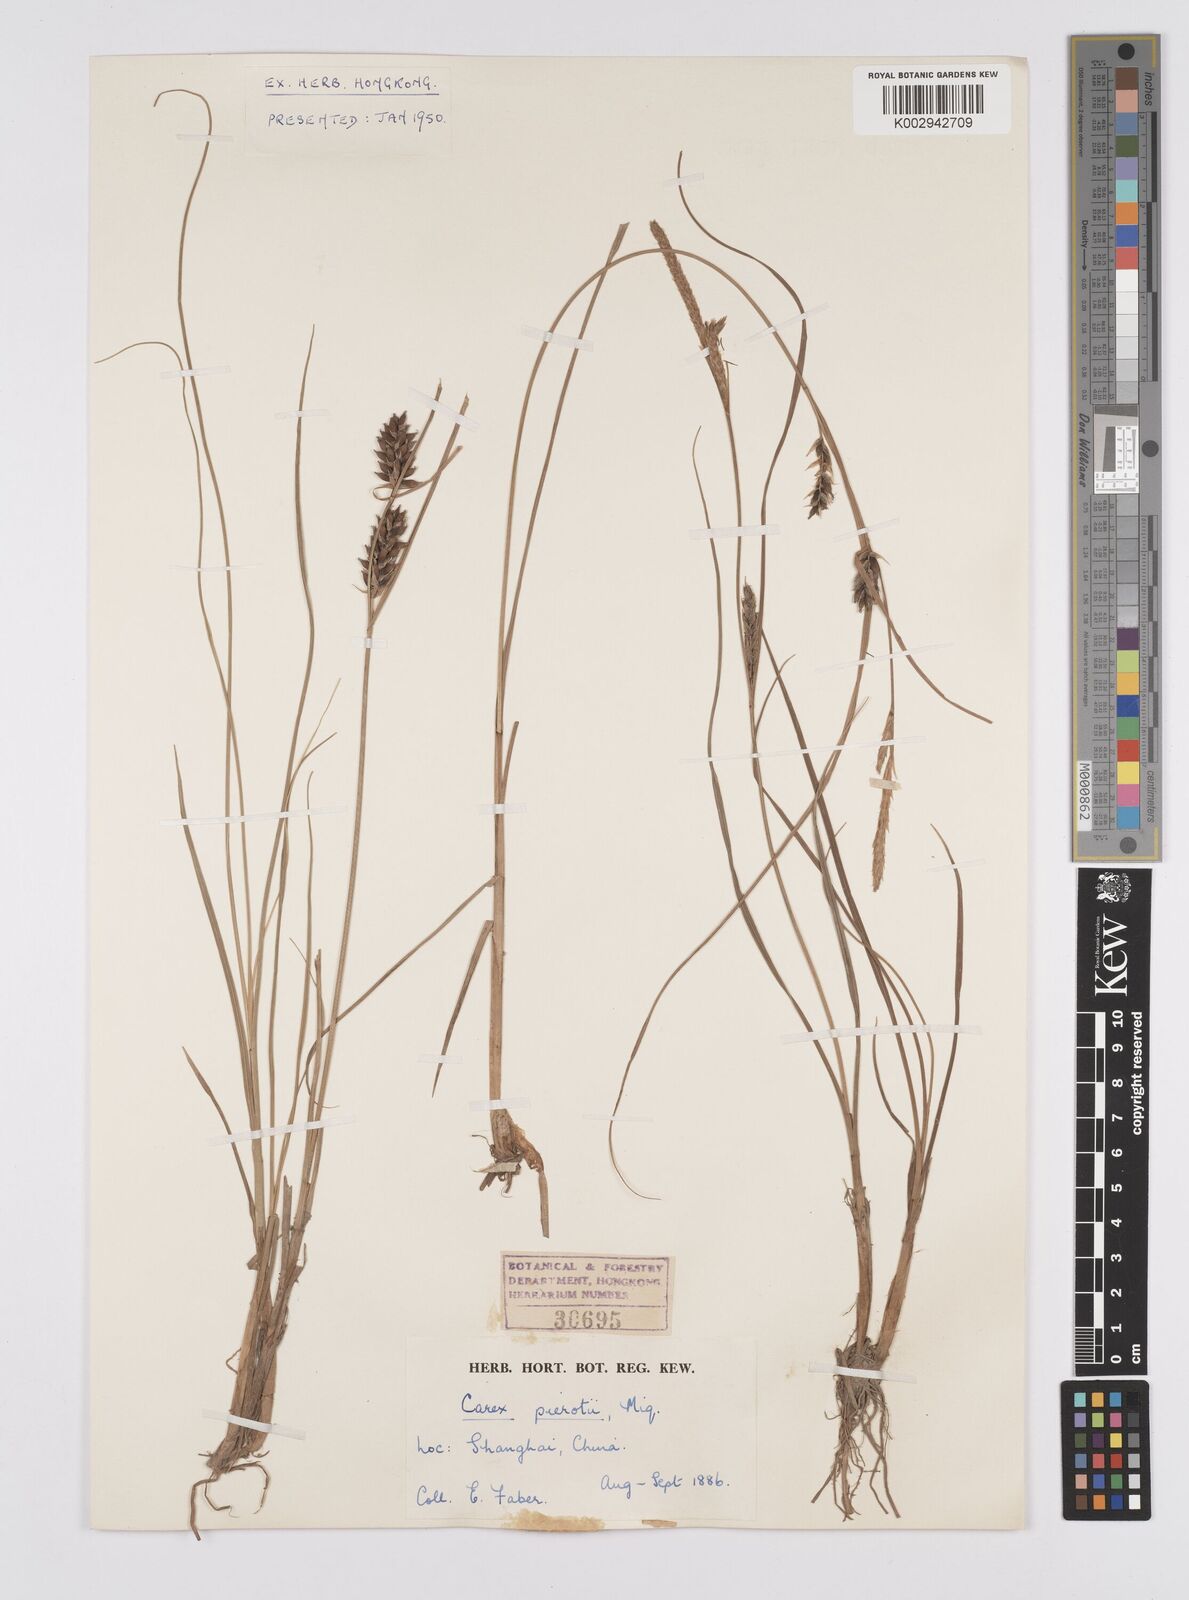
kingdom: Plantae
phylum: Tracheophyta
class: Liliopsida
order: Poales
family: Cyperaceae
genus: Carex
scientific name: Carex scabrifolia
